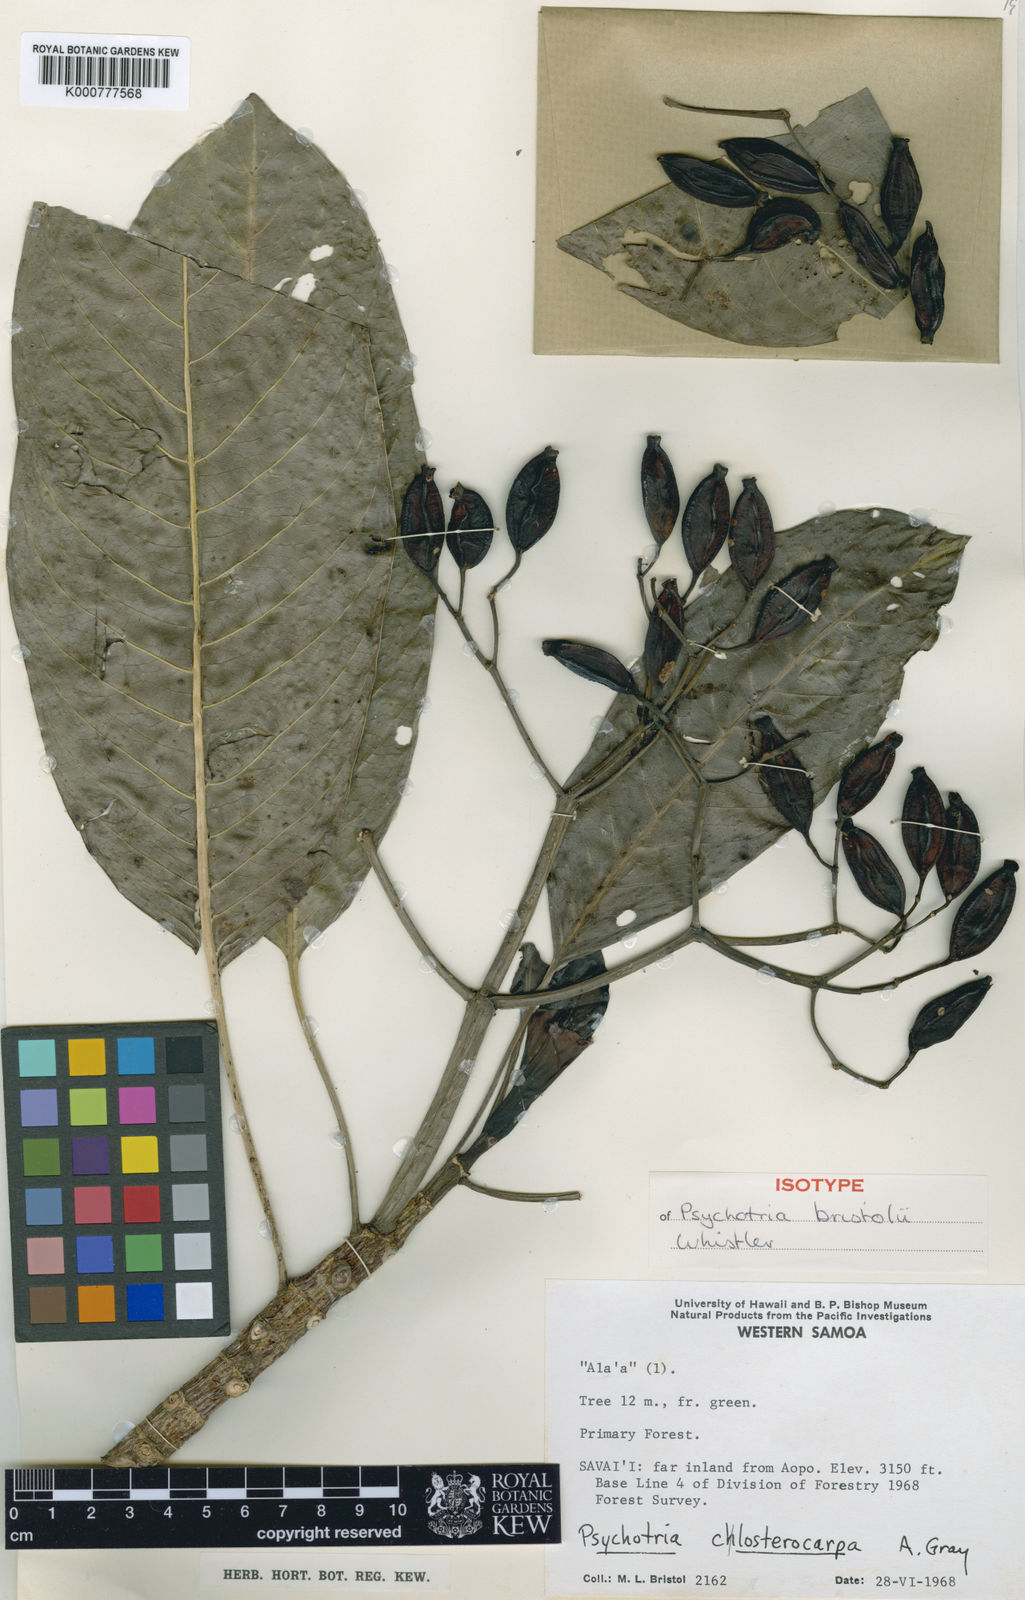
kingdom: Plantae
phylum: Tracheophyta
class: Magnoliopsida
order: Gentianales
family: Rubiaceae
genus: Psychotria
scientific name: Psychotria bristolii
